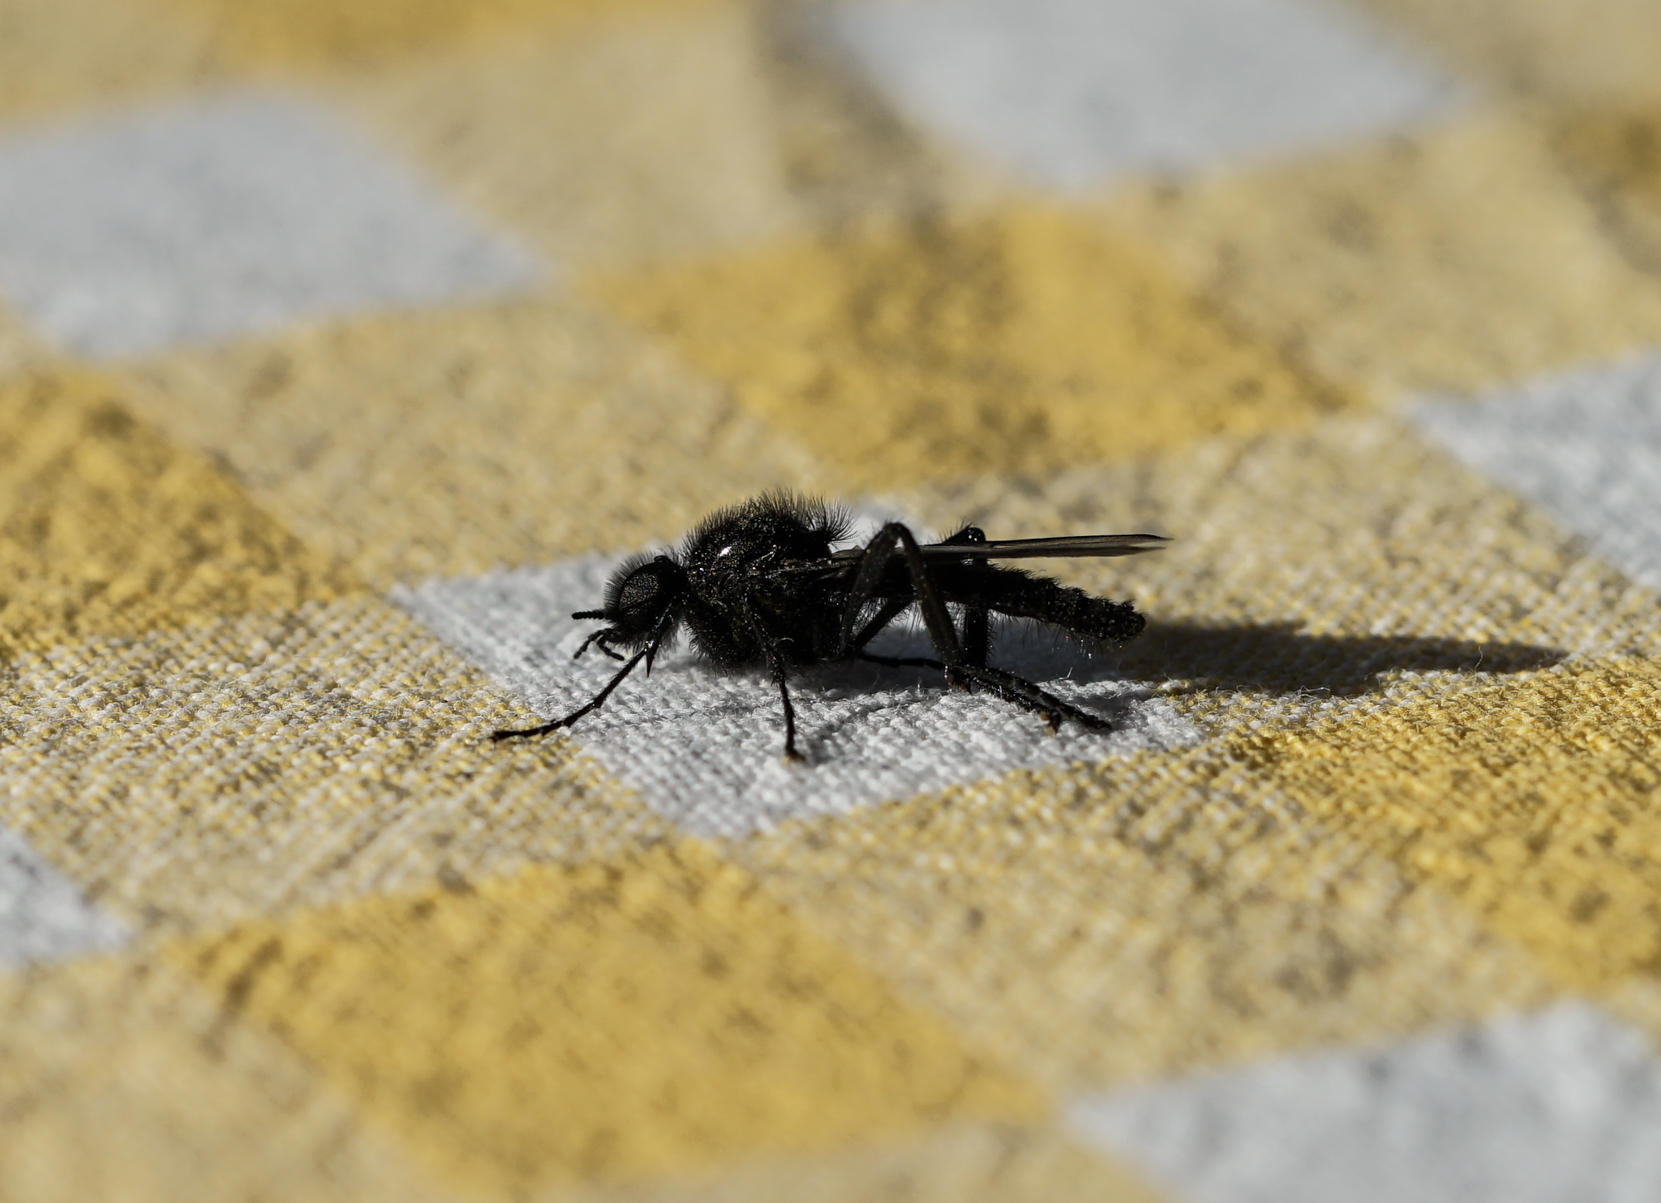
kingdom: Animalia
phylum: Arthropoda
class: Insecta
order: Diptera
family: Bibionidae
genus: Bibio
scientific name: Bibio marci
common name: St marks fly
